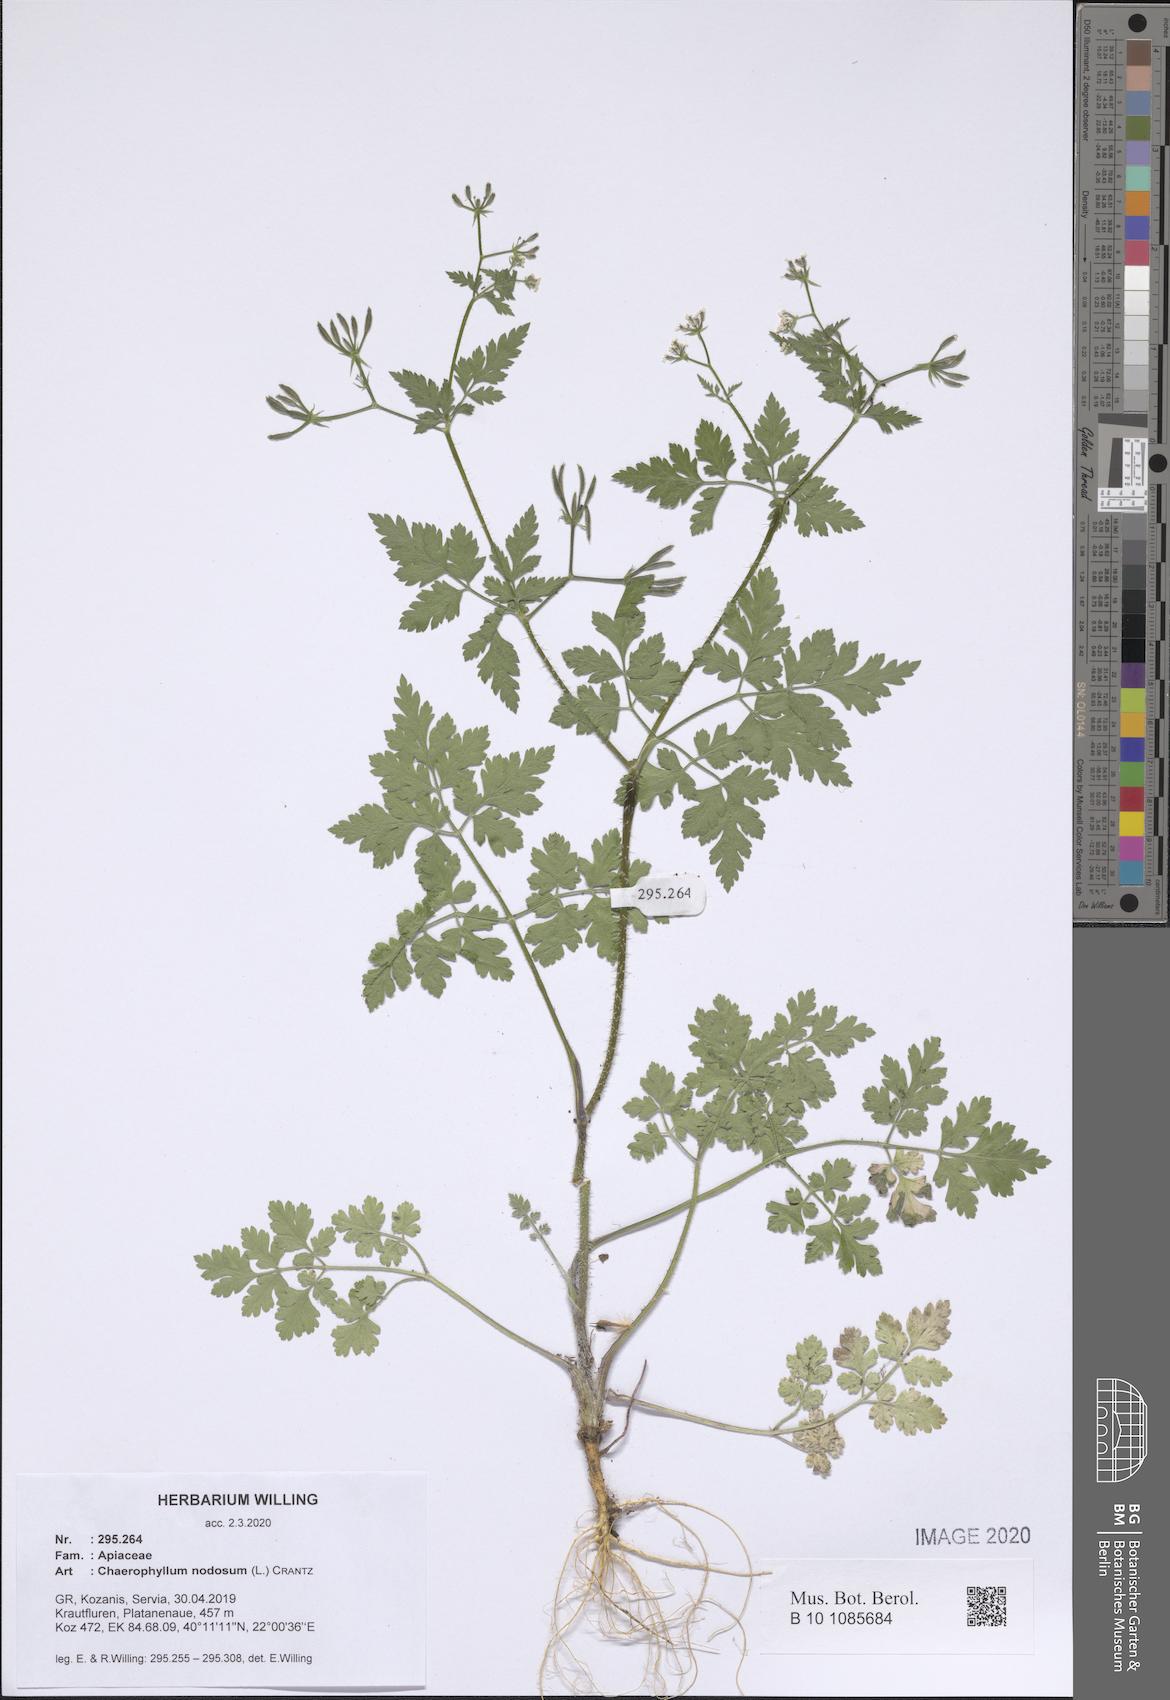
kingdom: Plantae
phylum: Tracheophyta
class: Magnoliopsida
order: Apiales
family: Apiaceae
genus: Chaerophyllum
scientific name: Chaerophyllum nodosum
